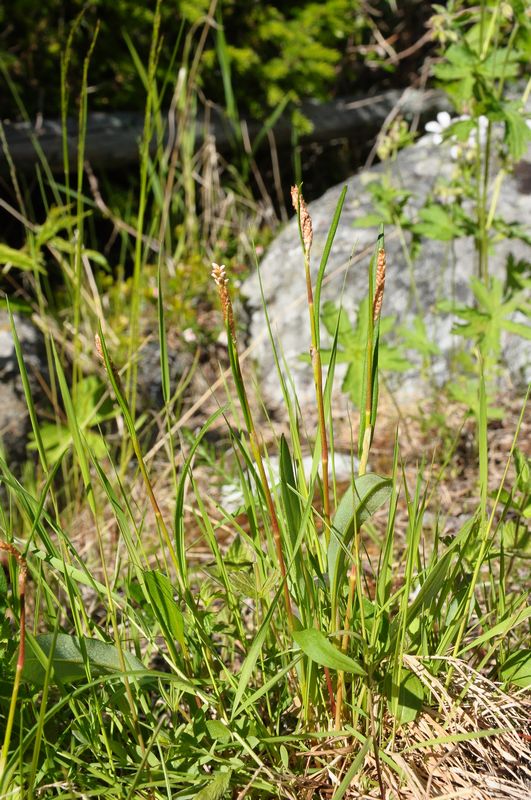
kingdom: Plantae
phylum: Tracheophyta
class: Magnoliopsida
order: Caryophyllales
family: Polygonaceae
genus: Bistorta
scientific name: Bistorta vivipara
